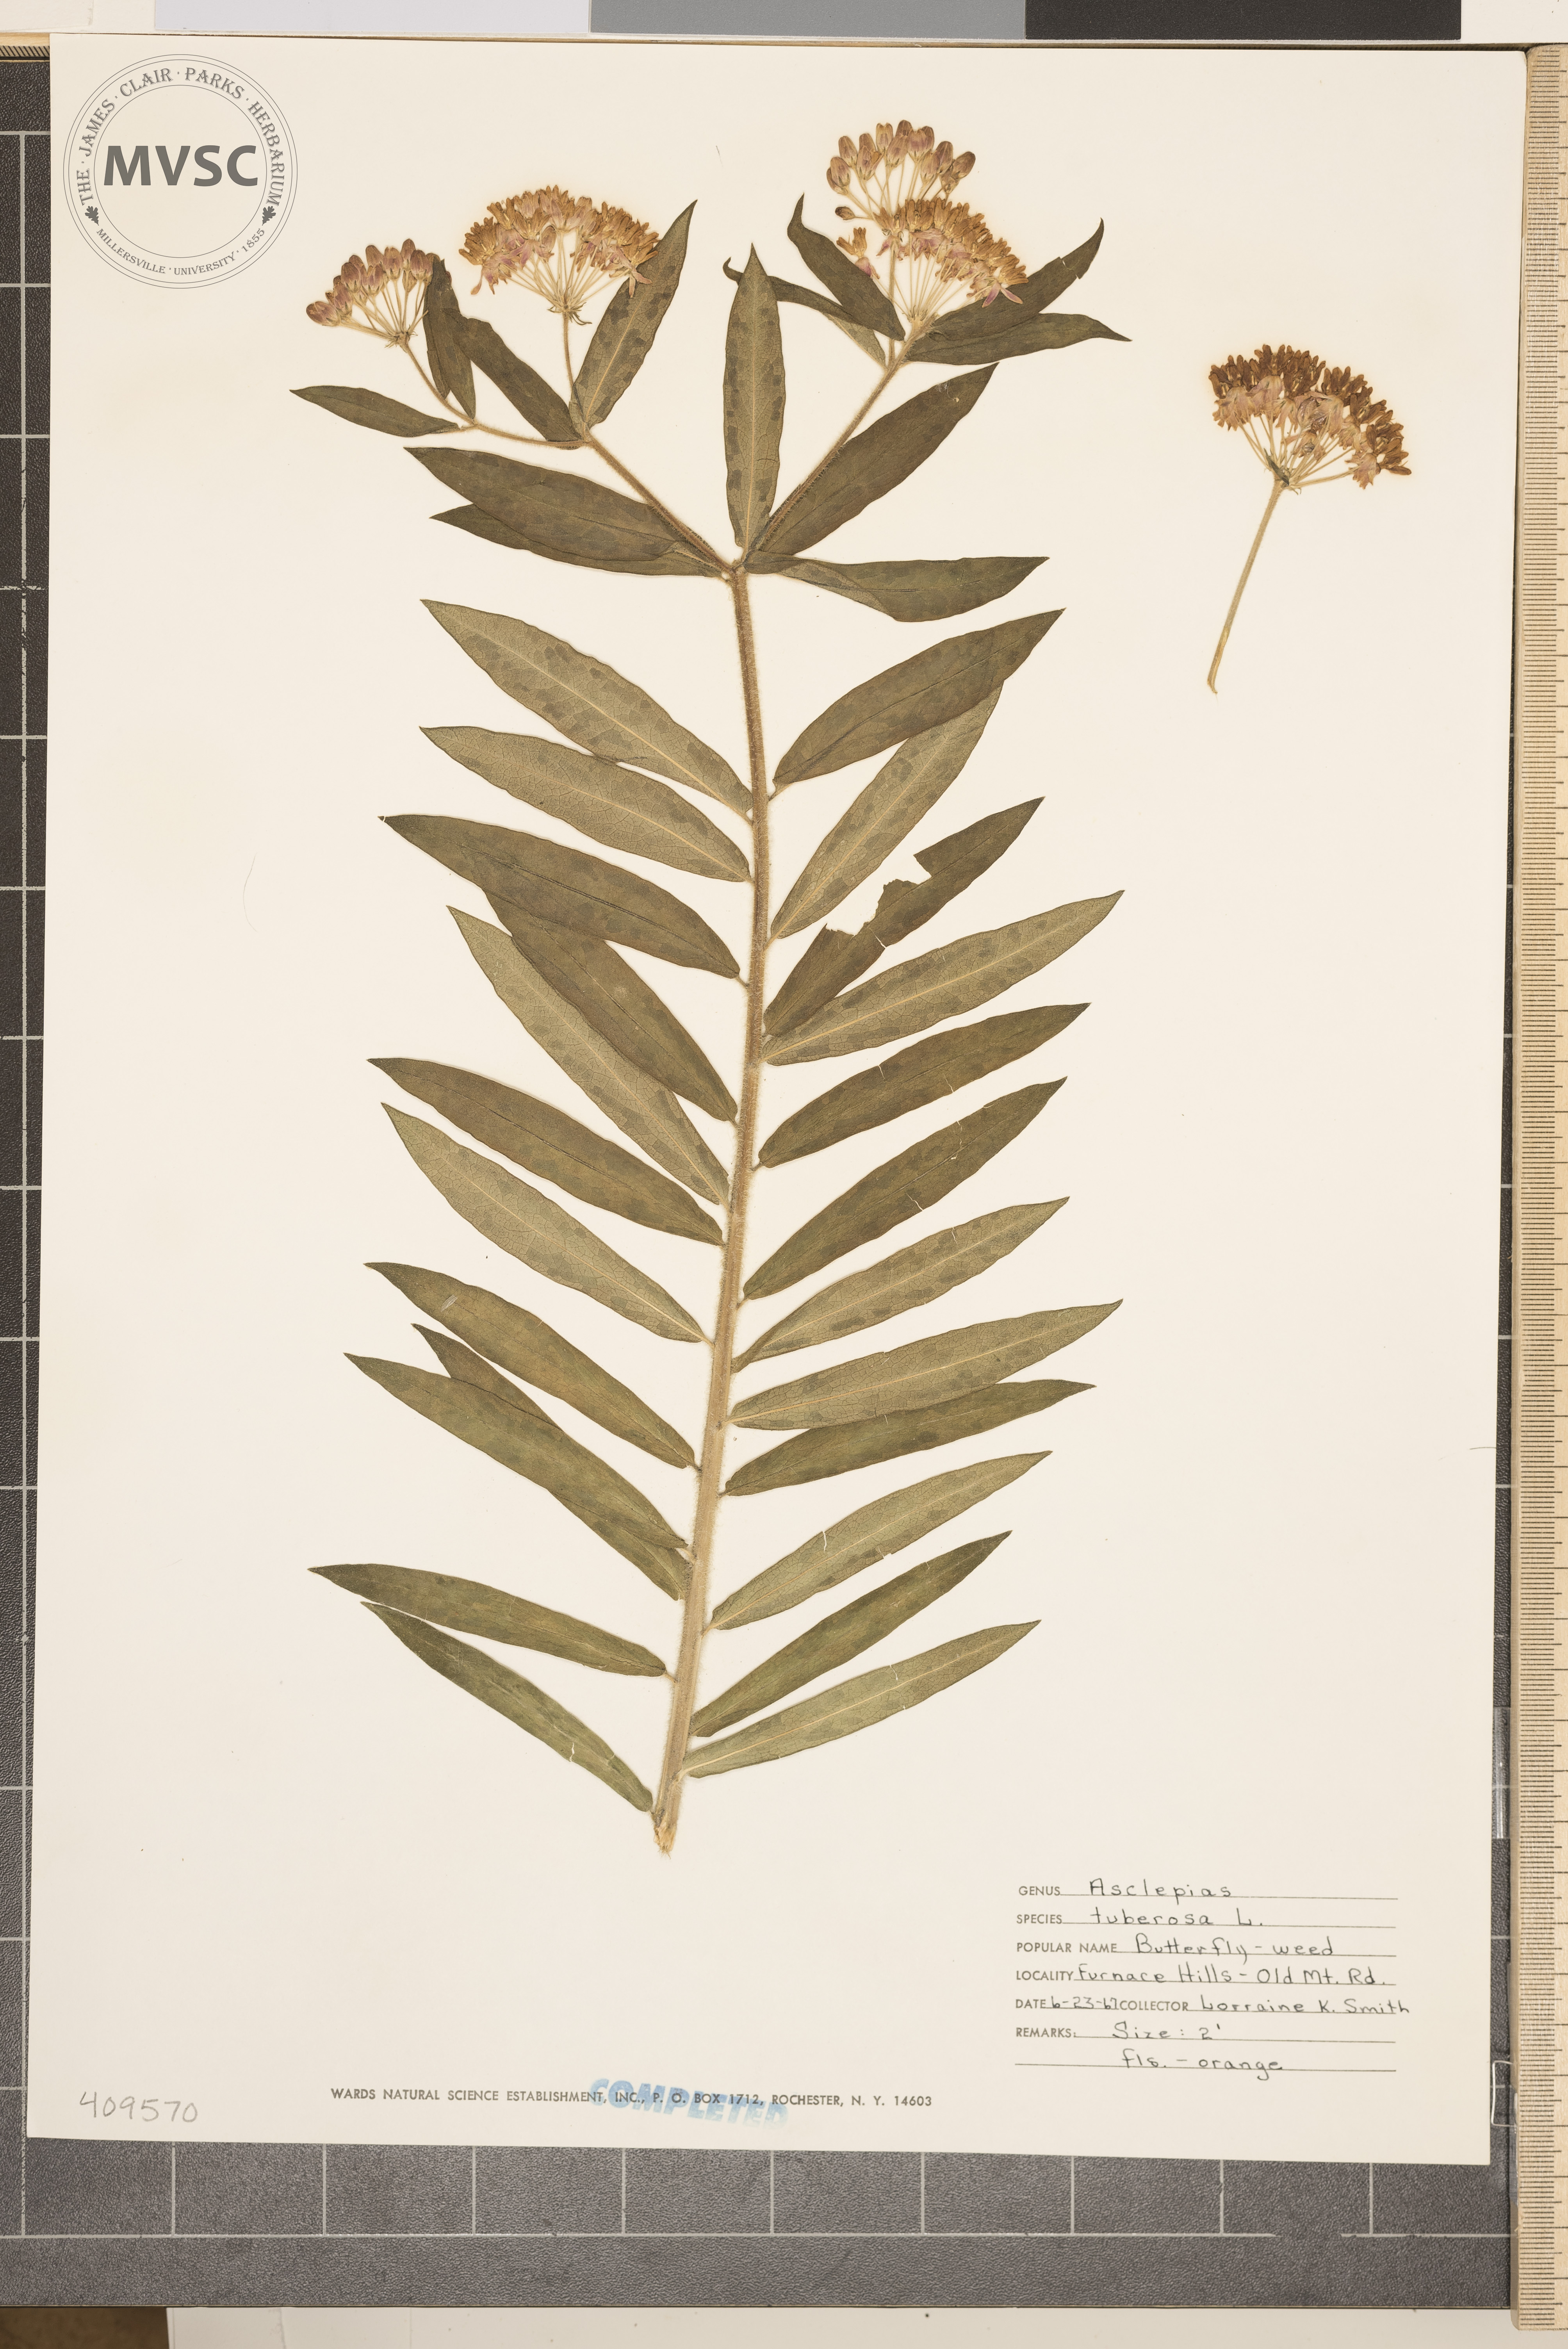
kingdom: Plantae
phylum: Tracheophyta
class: Magnoliopsida
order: Gentianales
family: Apocynaceae
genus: Asclepias
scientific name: Asclepias tuberosa
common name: Butterfly milkweed
